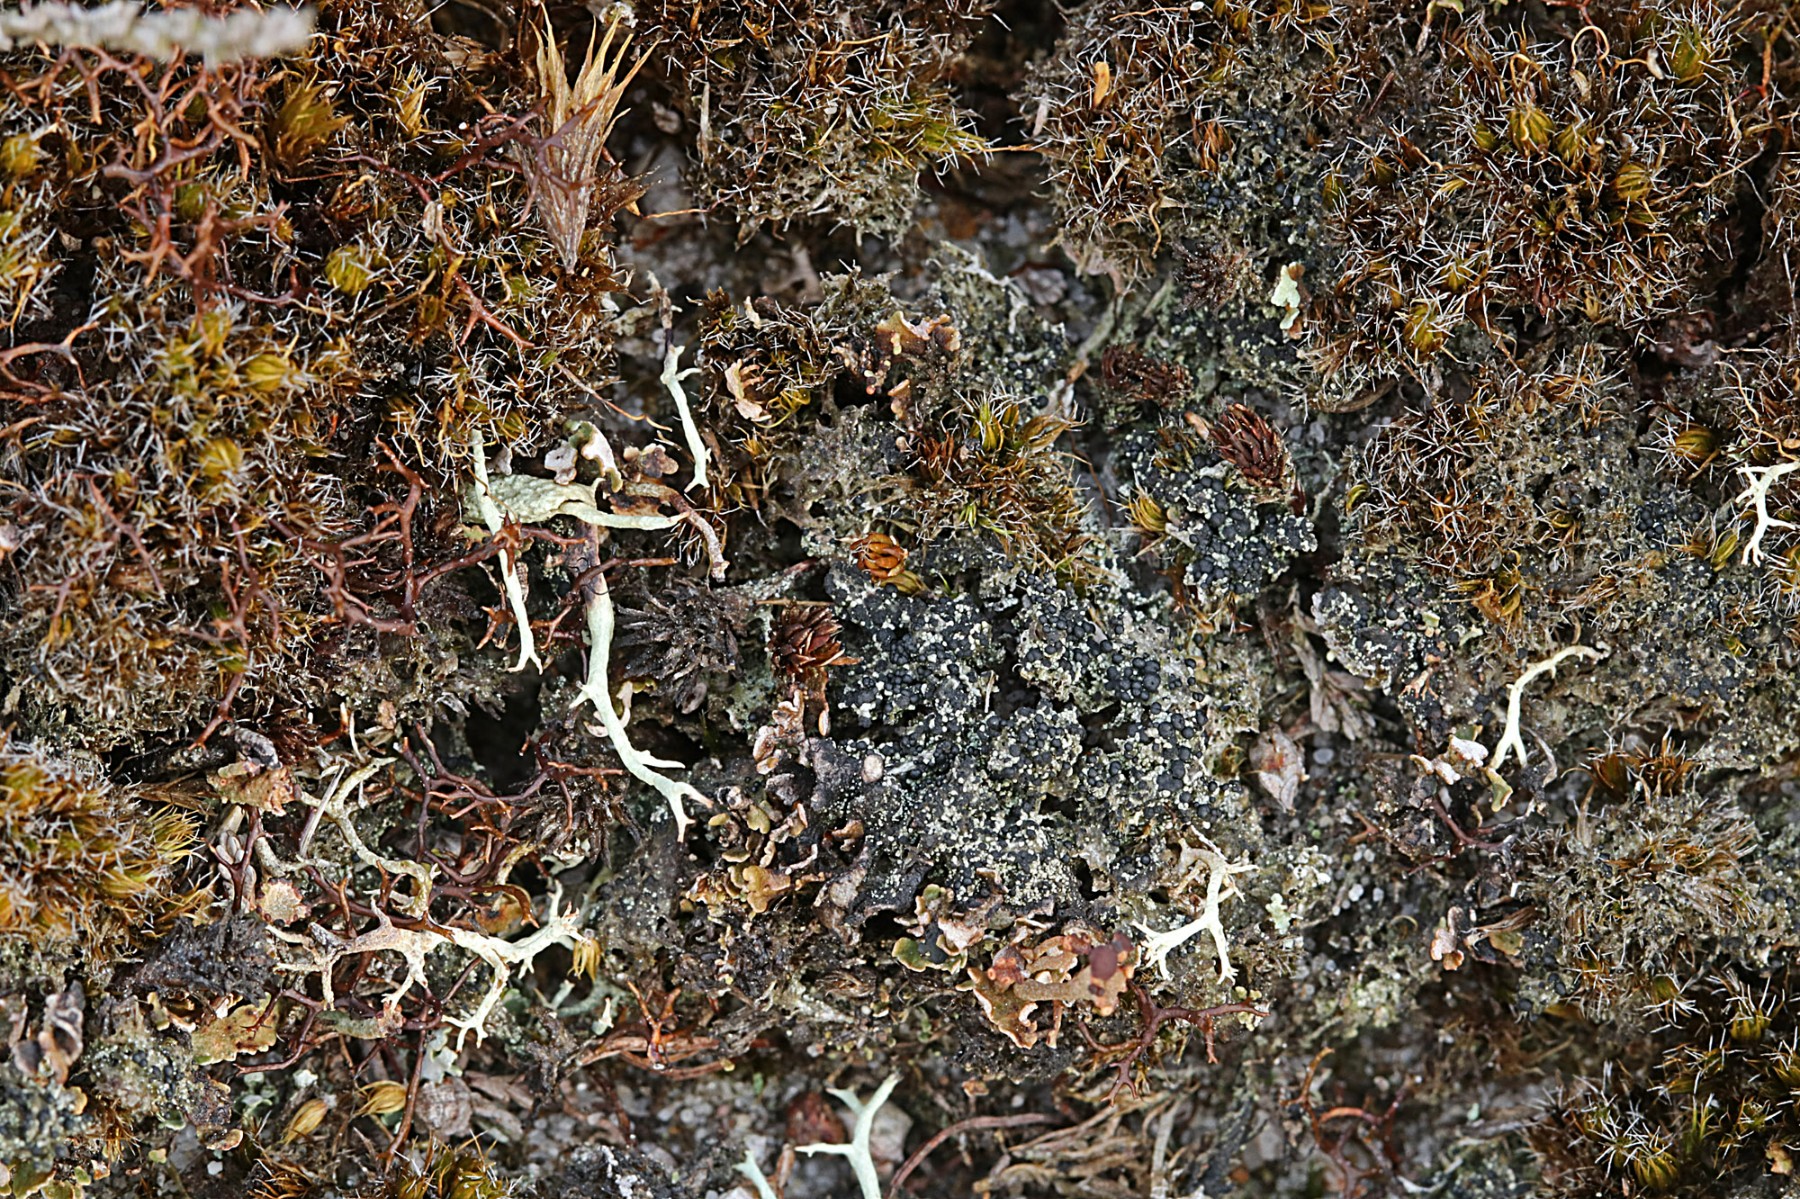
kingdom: Fungi
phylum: Ascomycota
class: Lecanoromycetes
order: Lecanorales
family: Byssolomataceae
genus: Micarea
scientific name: Micarea lignaria
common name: tørve-knaplav
